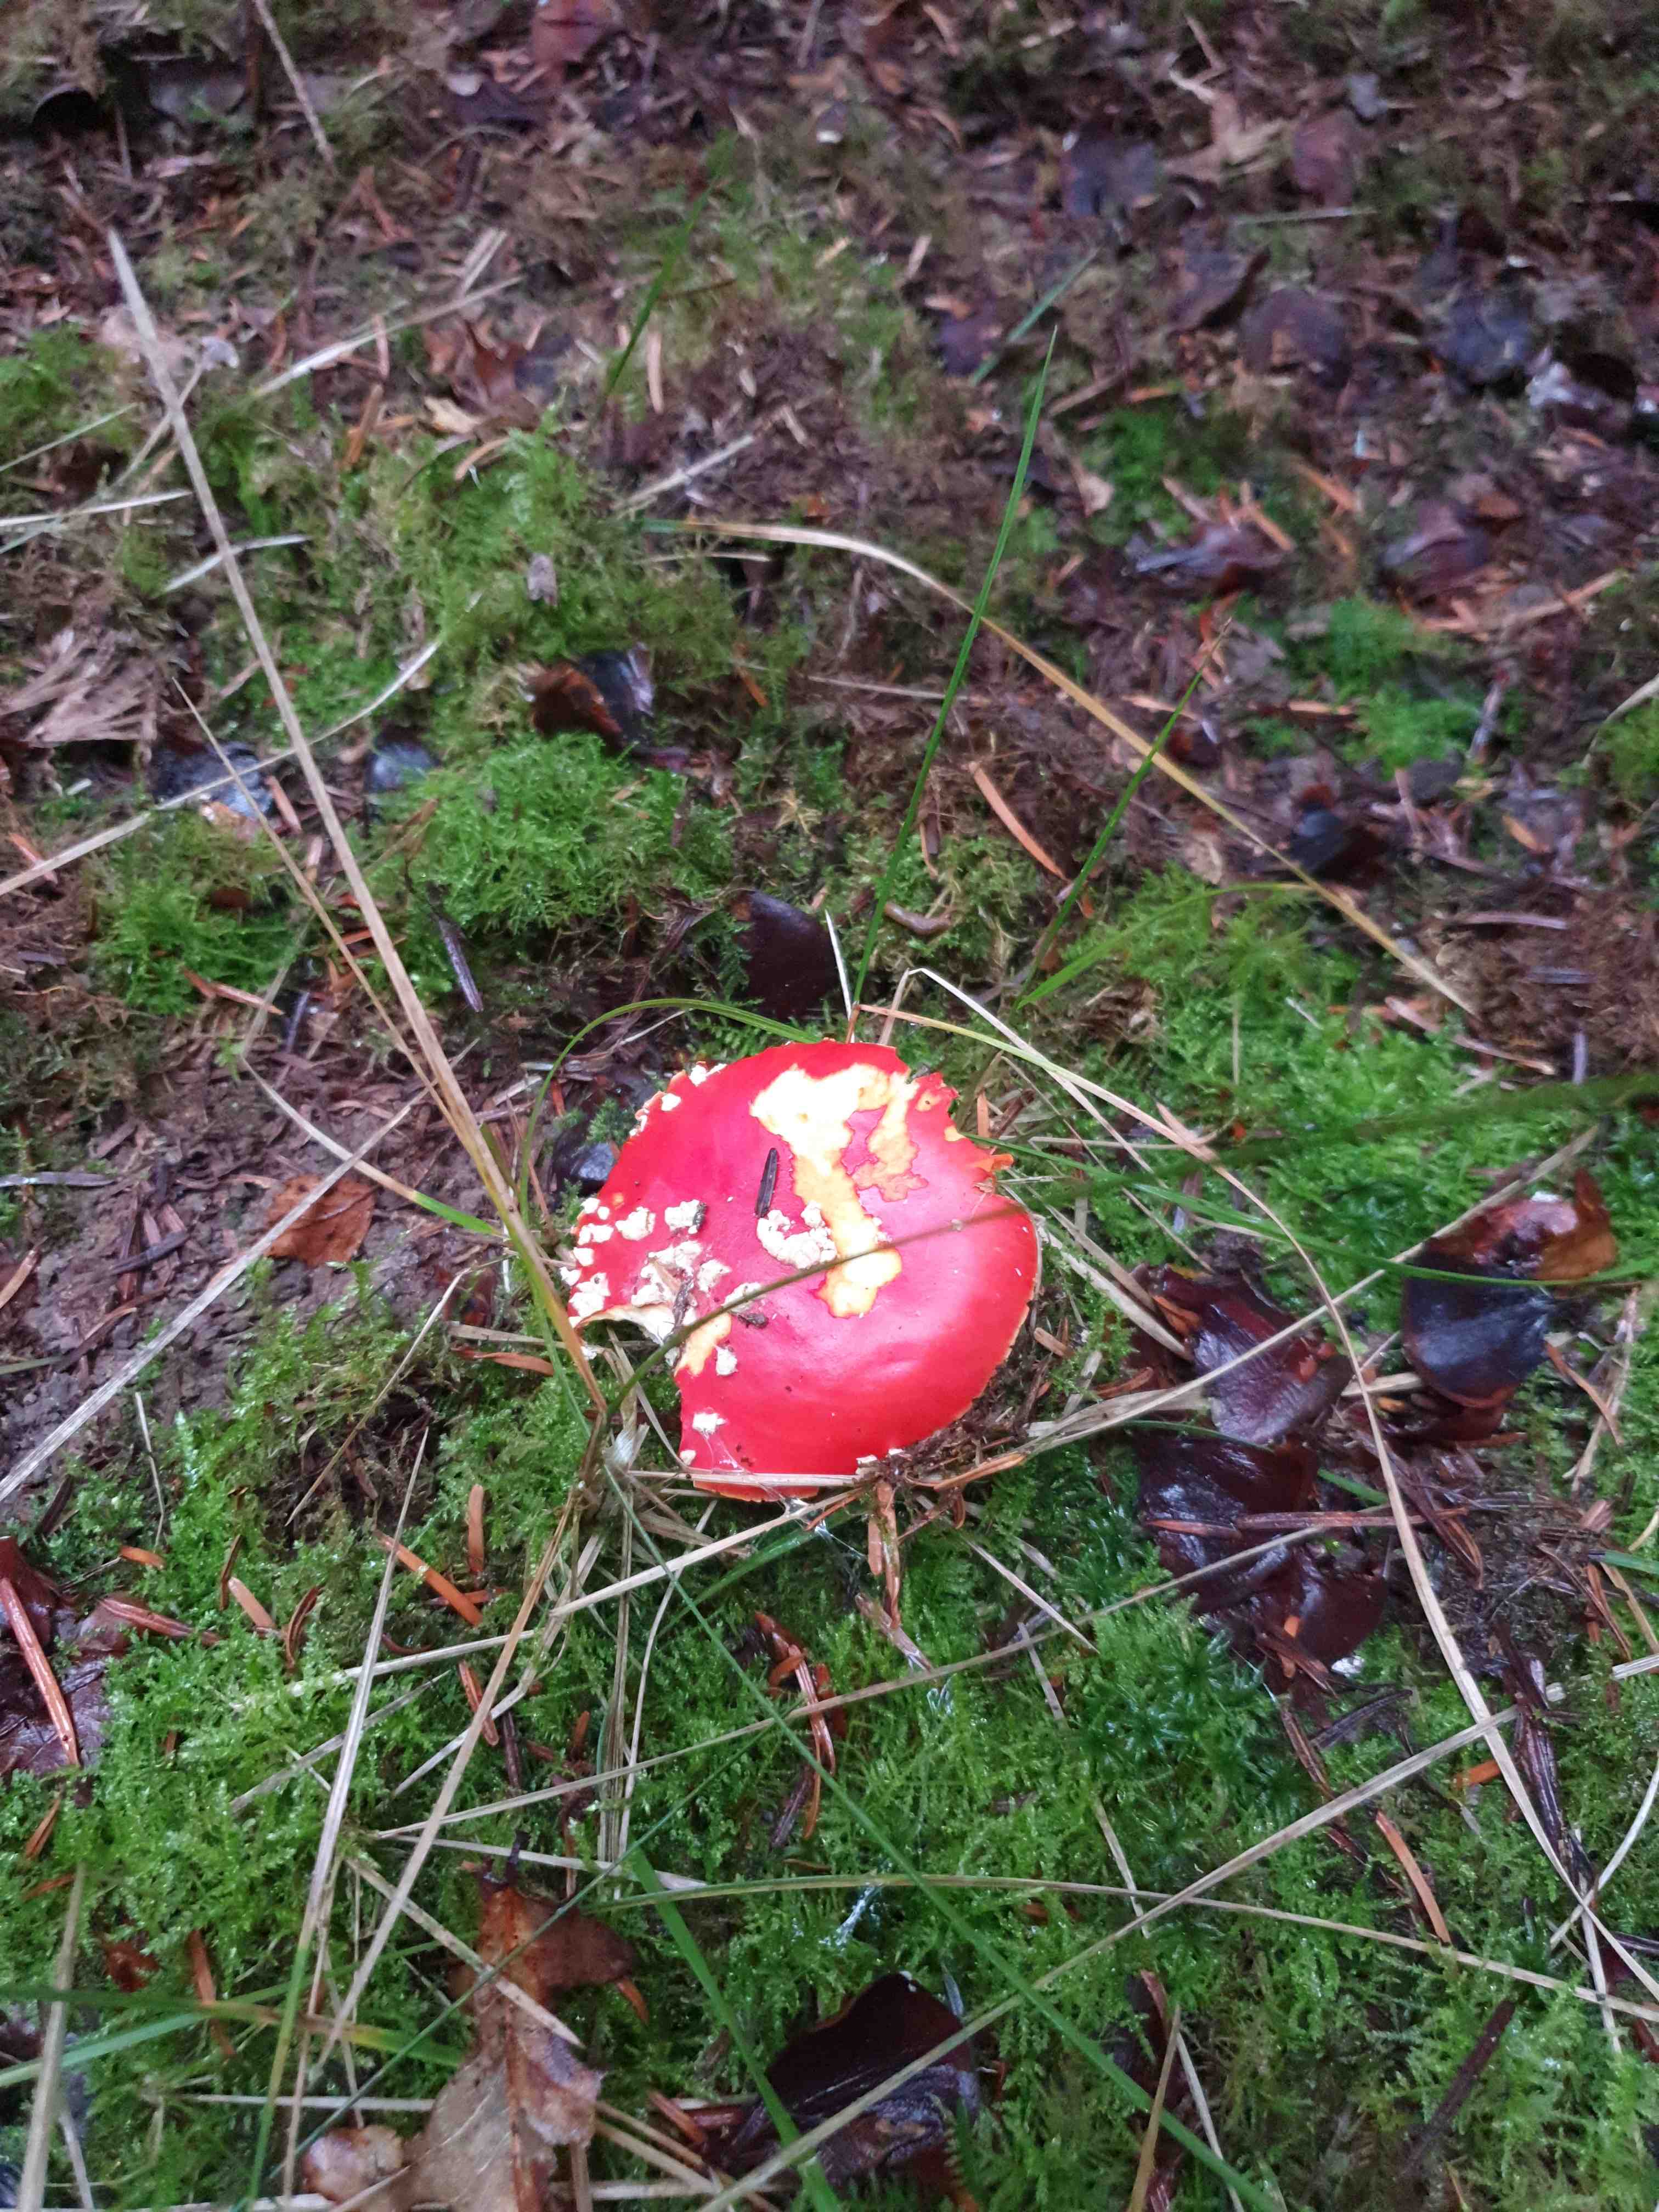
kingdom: Fungi
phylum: Basidiomycota
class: Agaricomycetes
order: Agaricales
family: Amanitaceae
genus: Amanita
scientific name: Amanita muscaria
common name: rød fluesvamp
